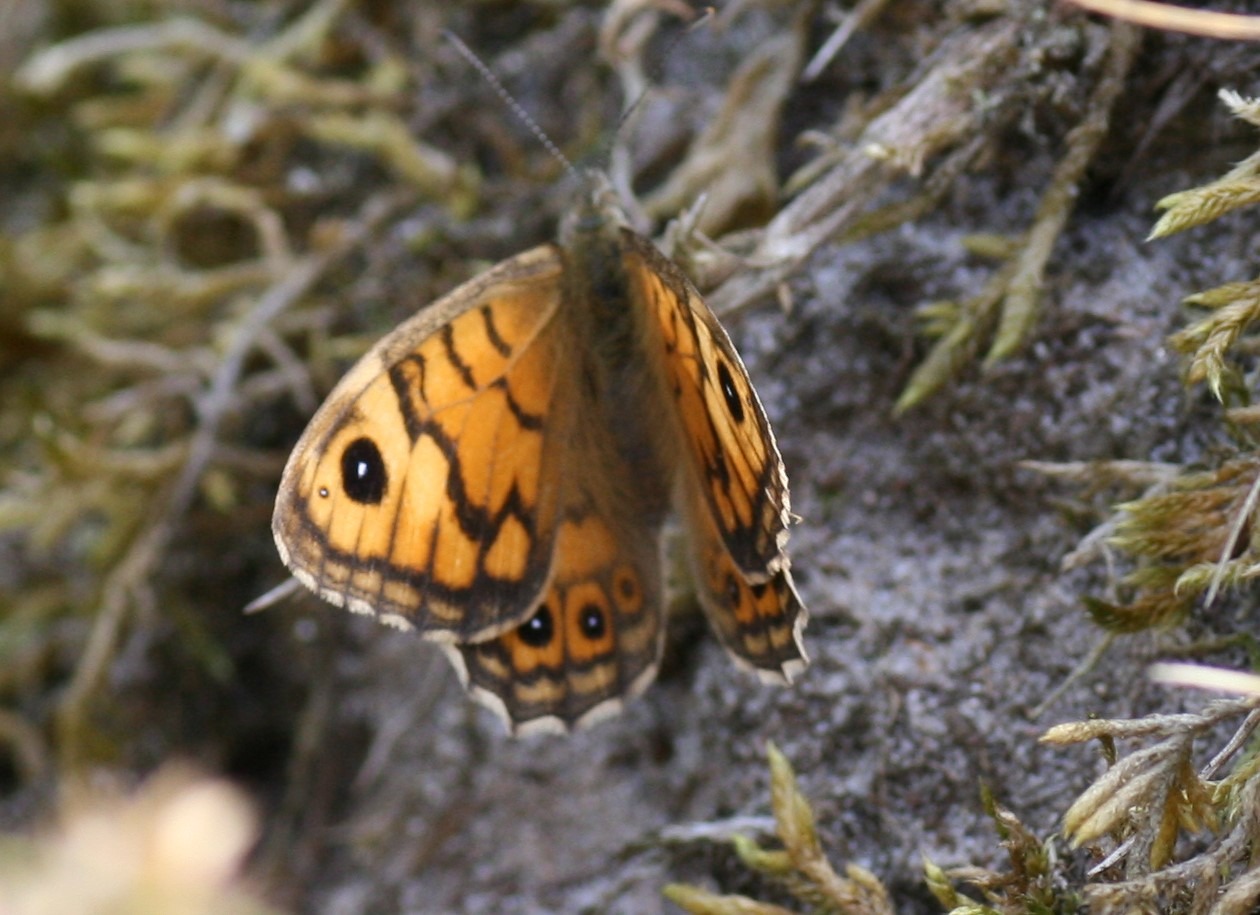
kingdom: Animalia
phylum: Arthropoda
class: Insecta
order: Lepidoptera
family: Nymphalidae
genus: Pararge
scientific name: Pararge Lasiommata megera
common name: Vejrandøje
